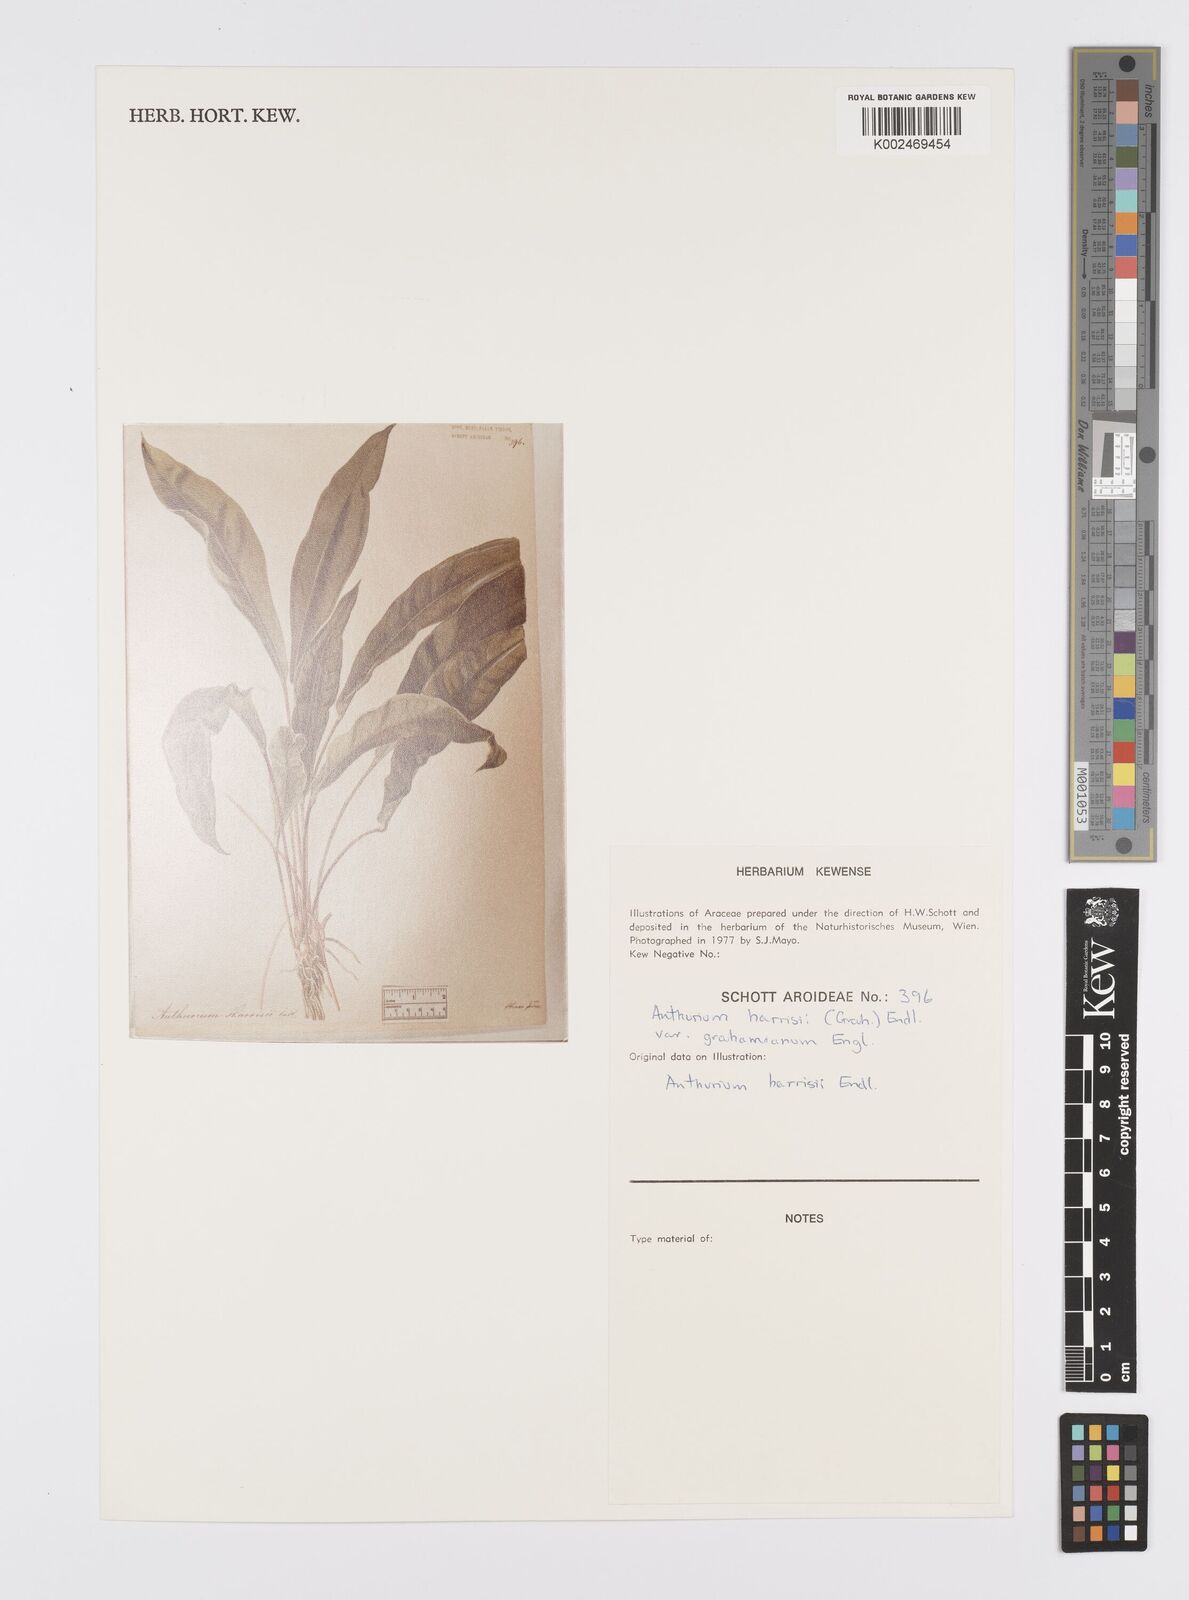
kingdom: Plantae
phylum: Tracheophyta
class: Liliopsida
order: Alismatales
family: Araceae
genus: Anthurium
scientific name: Anthurium harrisii
